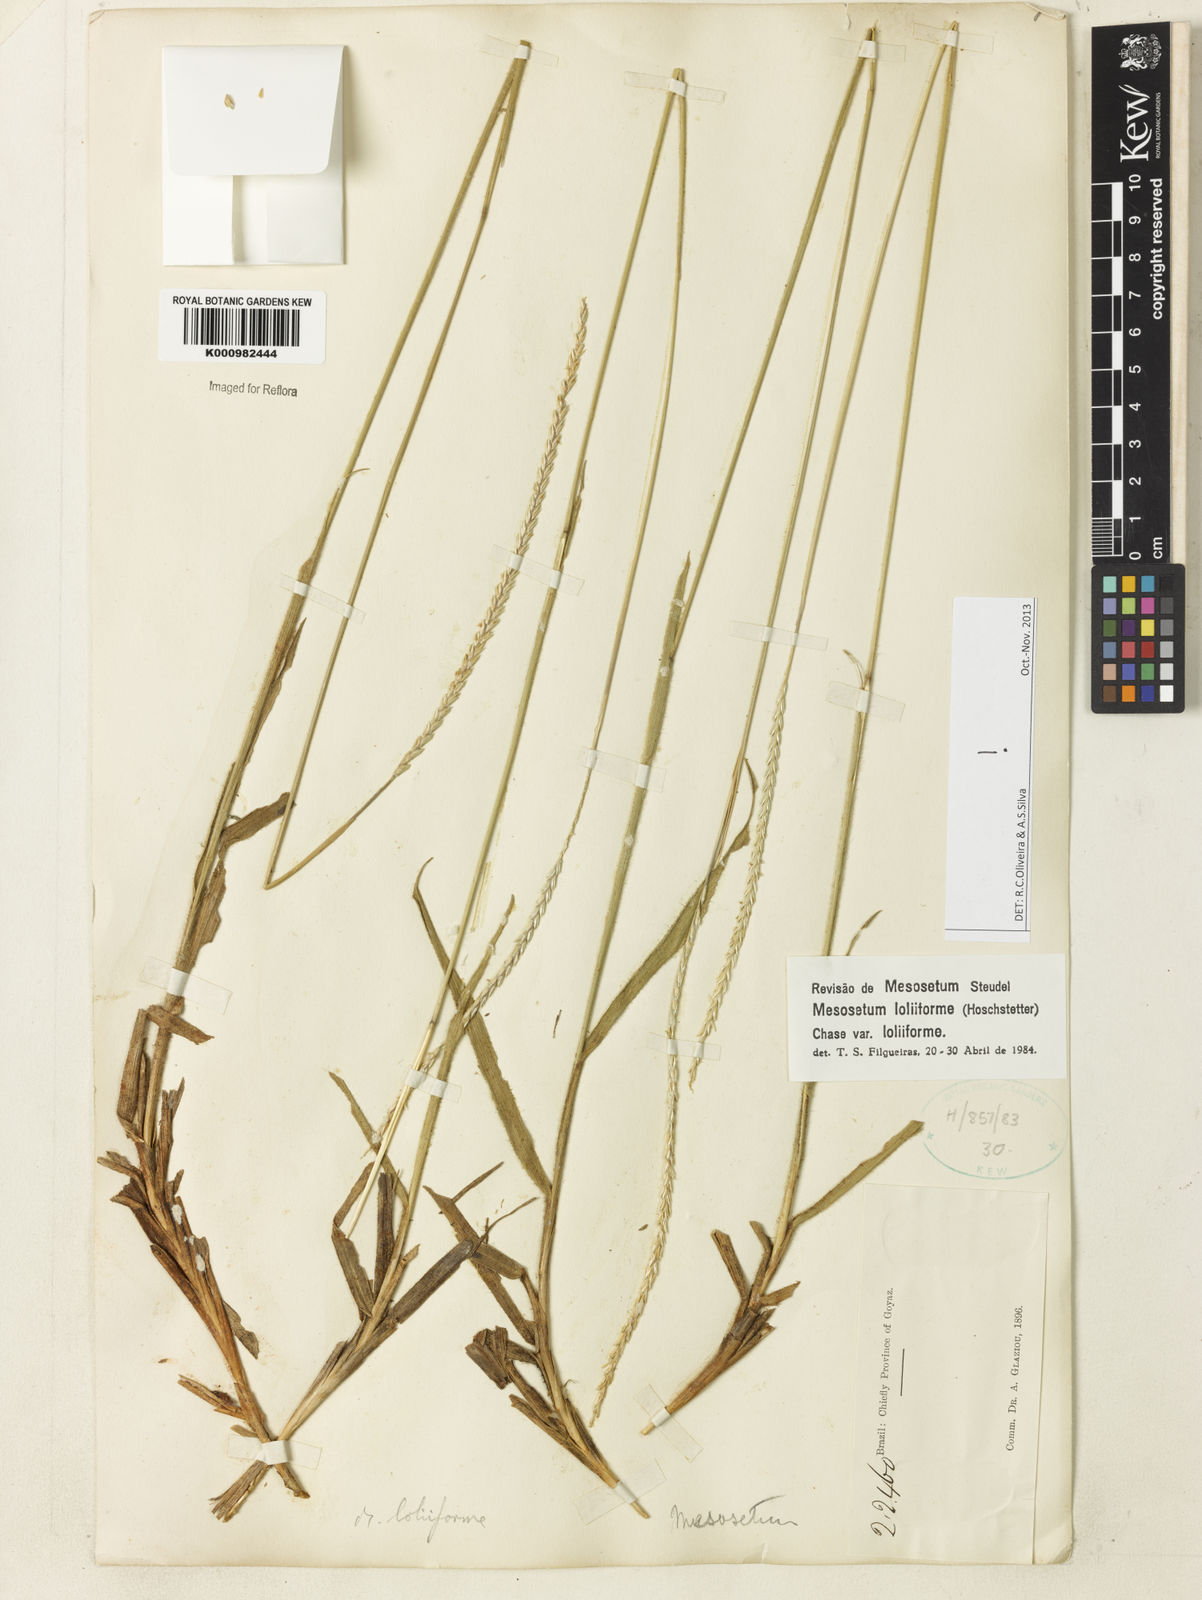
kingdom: Plantae
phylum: Tracheophyta
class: Liliopsida
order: Poales
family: Poaceae
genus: Mesosetum
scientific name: Mesosetum
